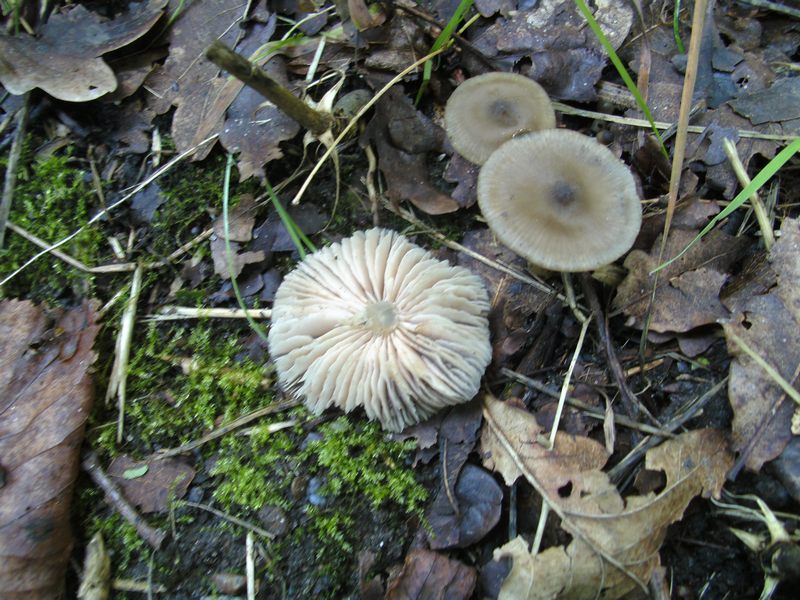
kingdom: Fungi
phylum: Basidiomycota
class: Agaricomycetes
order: Agaricales
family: Entolomataceae
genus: Entoloma
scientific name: Entoloma sordidulum
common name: smudsig rødblad
